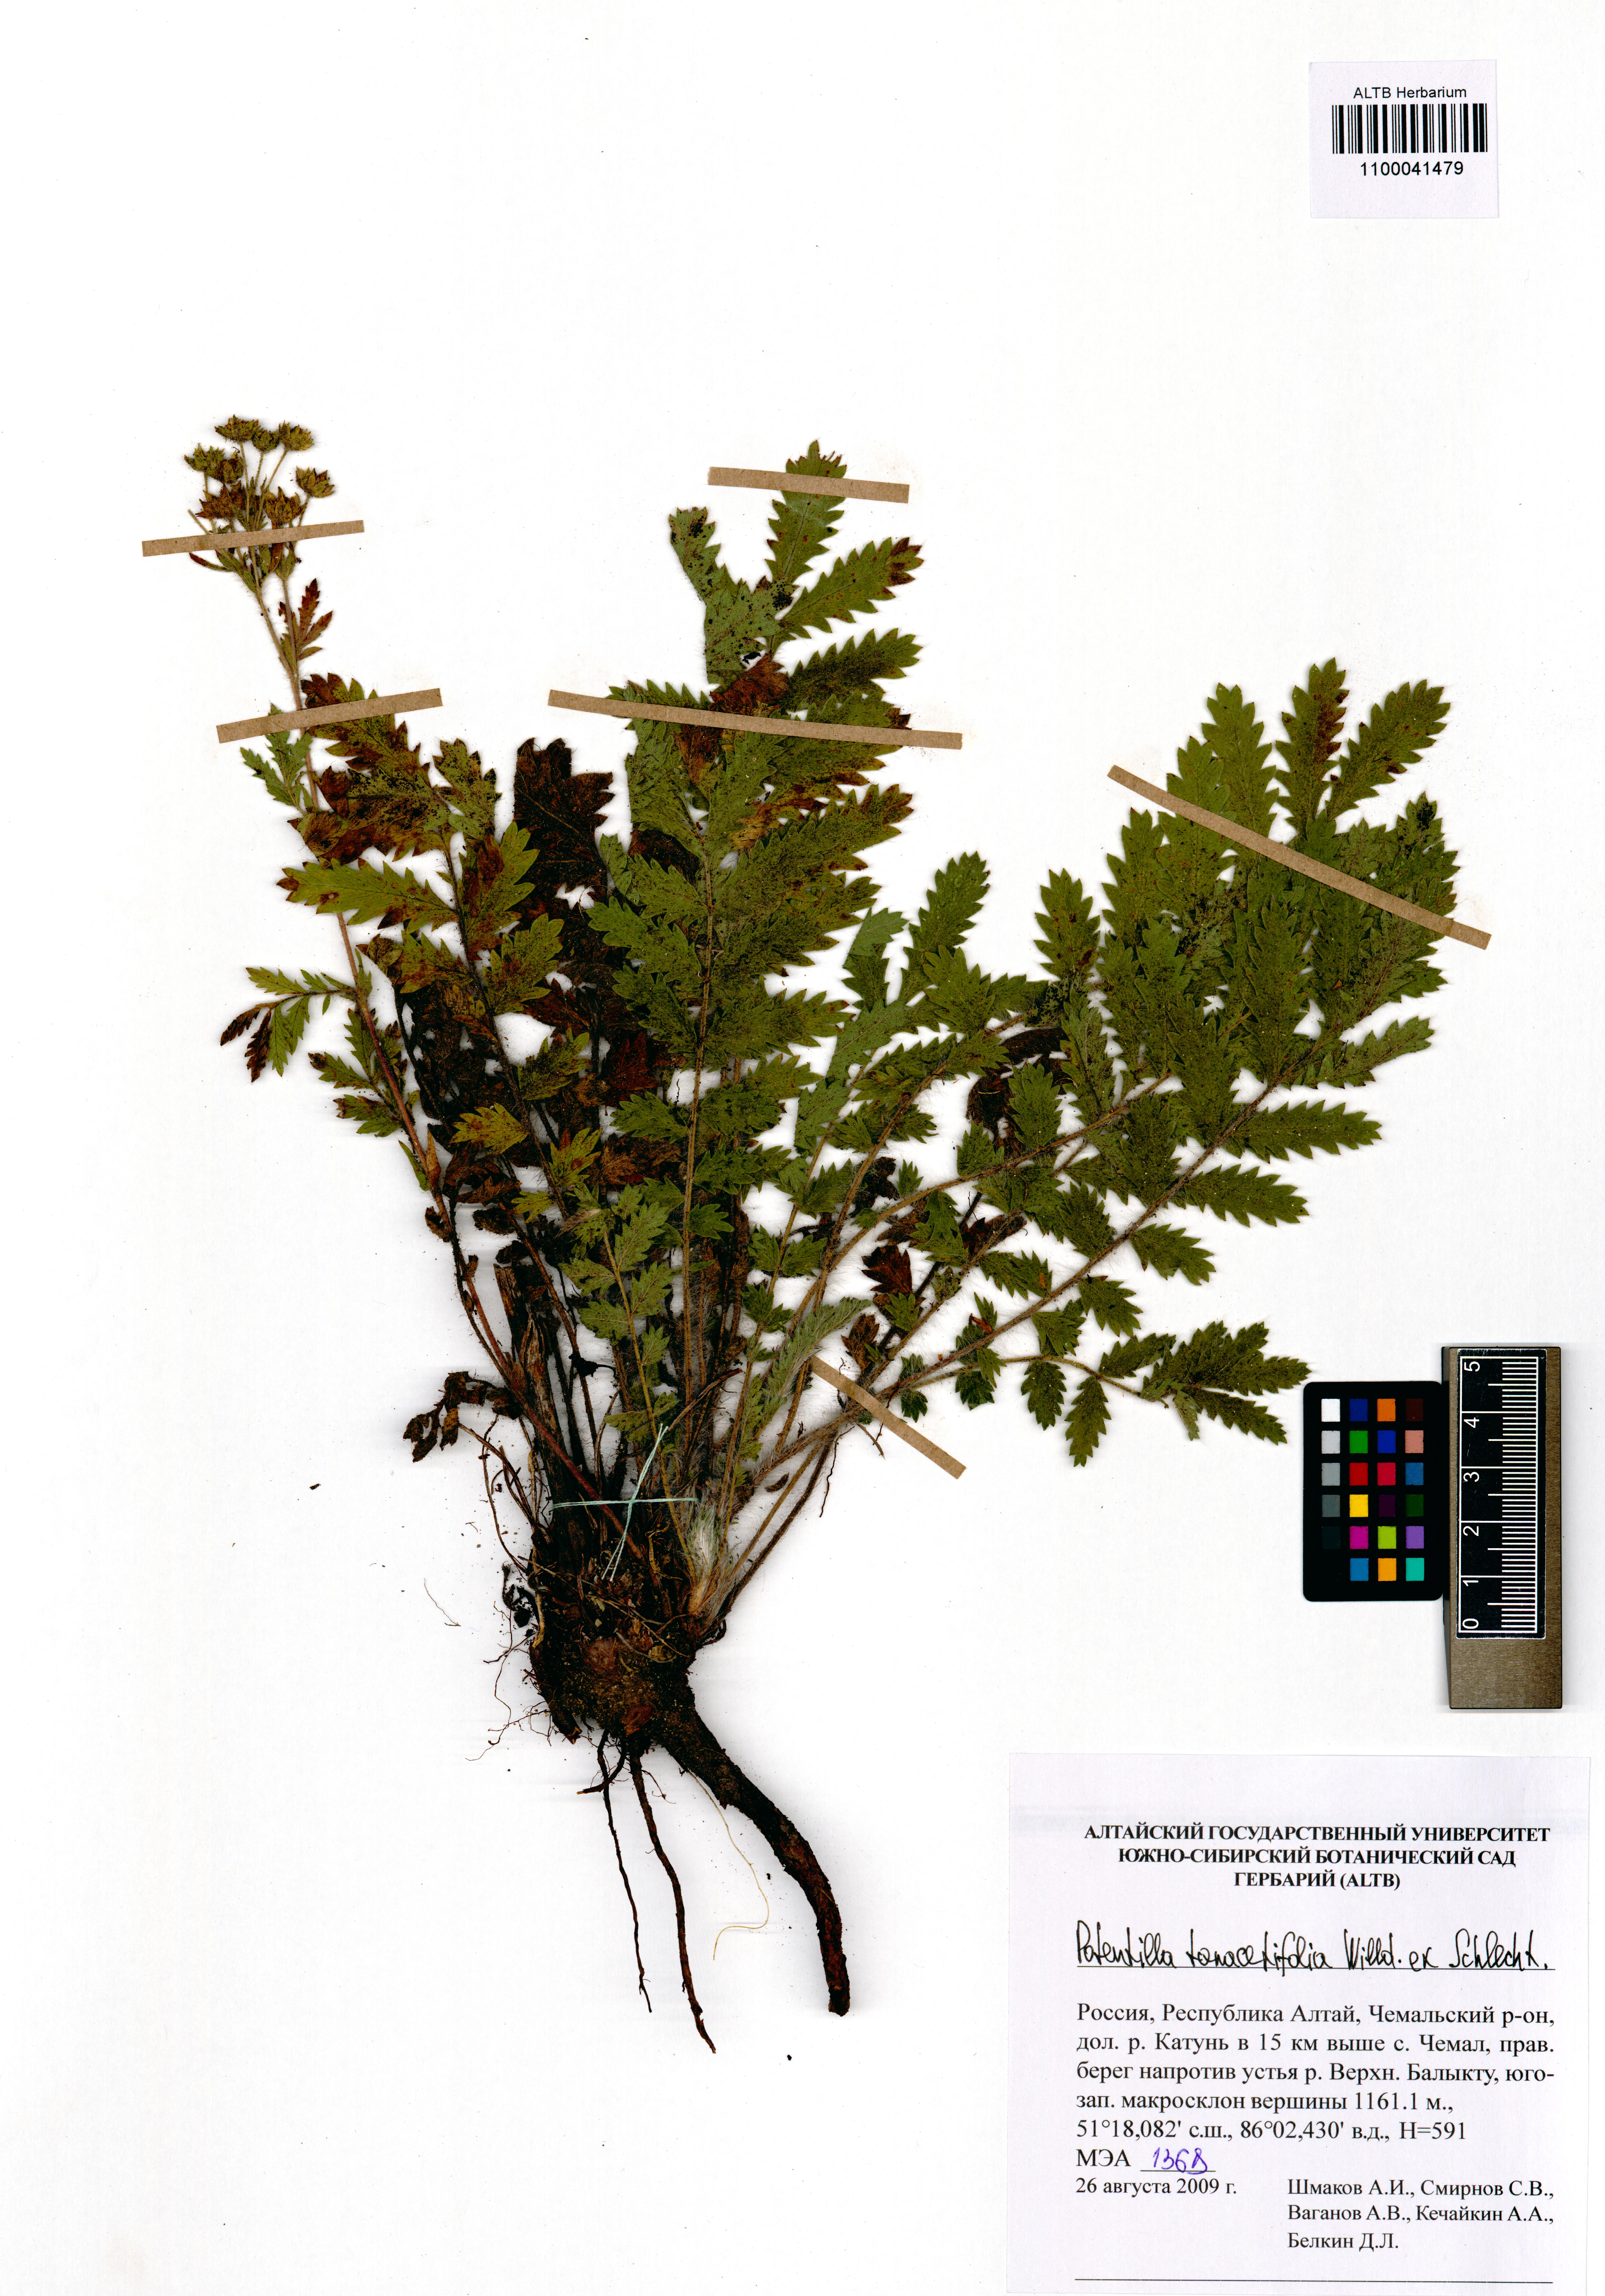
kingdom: Plantae
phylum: Tracheophyta
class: Magnoliopsida
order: Rosales
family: Rosaceae
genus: Potentilla
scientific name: Potentilla tanacetifolia
